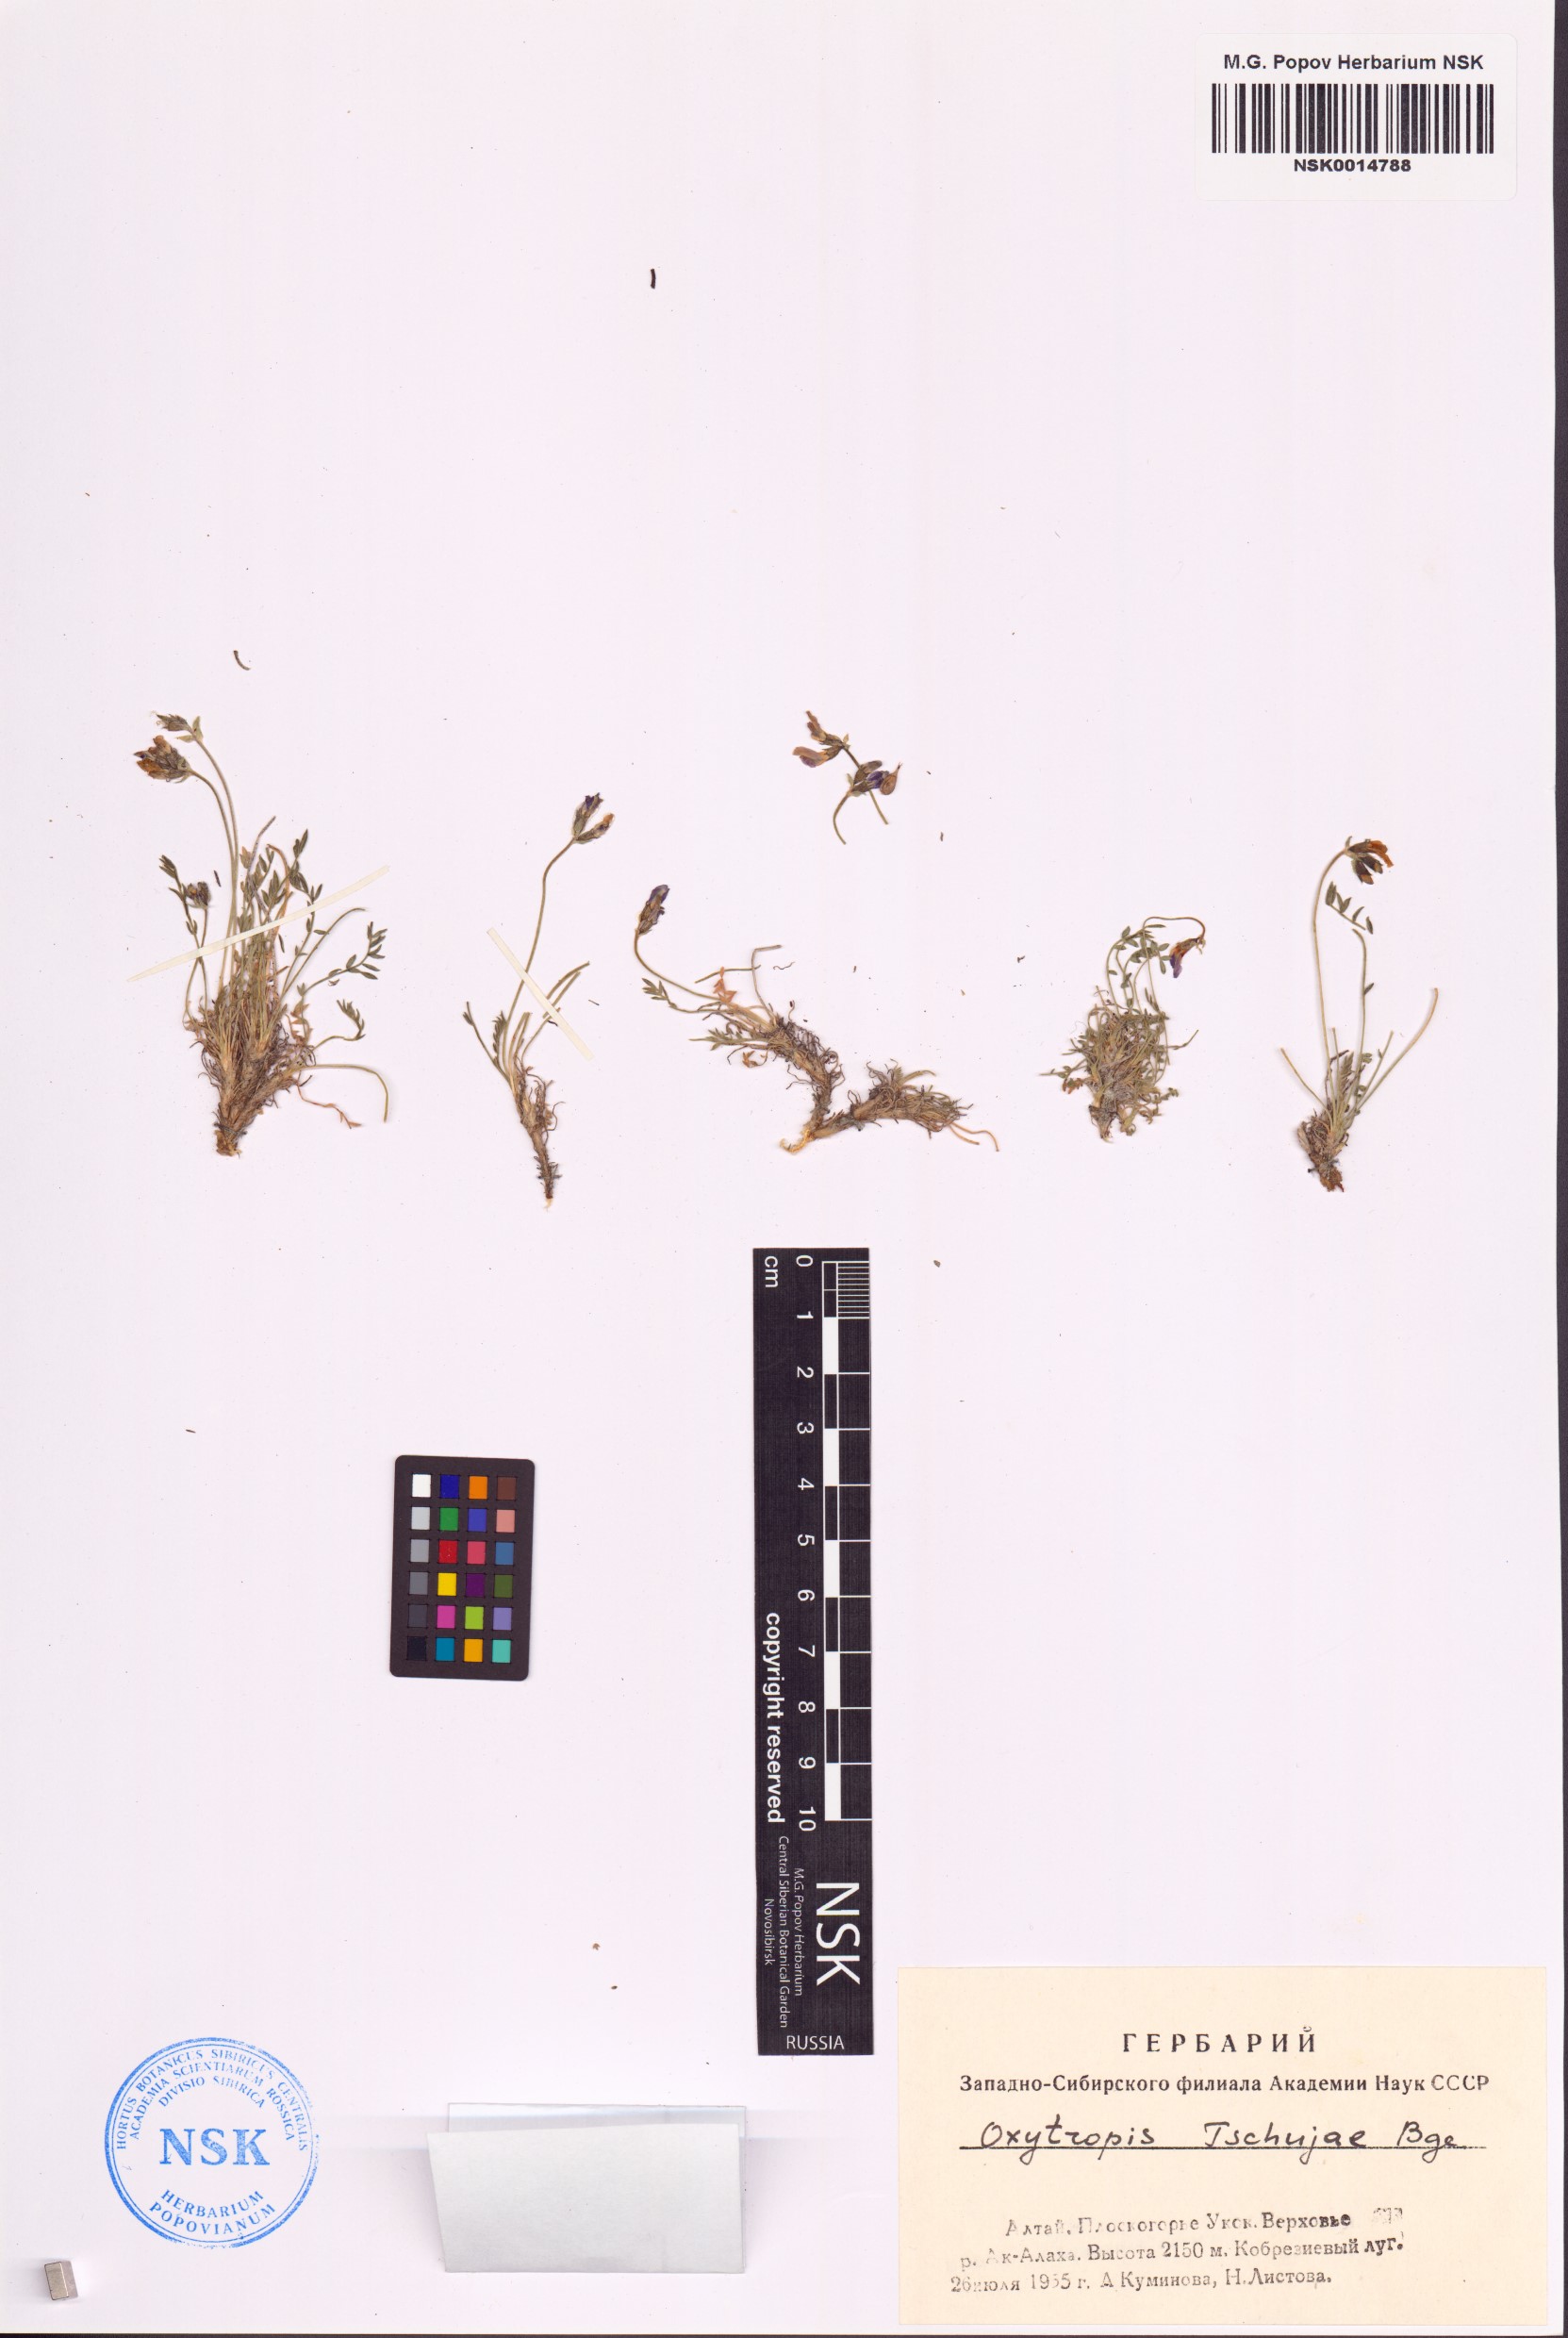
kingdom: Plantae
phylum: Tracheophyta
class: Magnoliopsida
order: Fabales
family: Fabaceae
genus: Oxytropis
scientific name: Oxytropis tschujae
